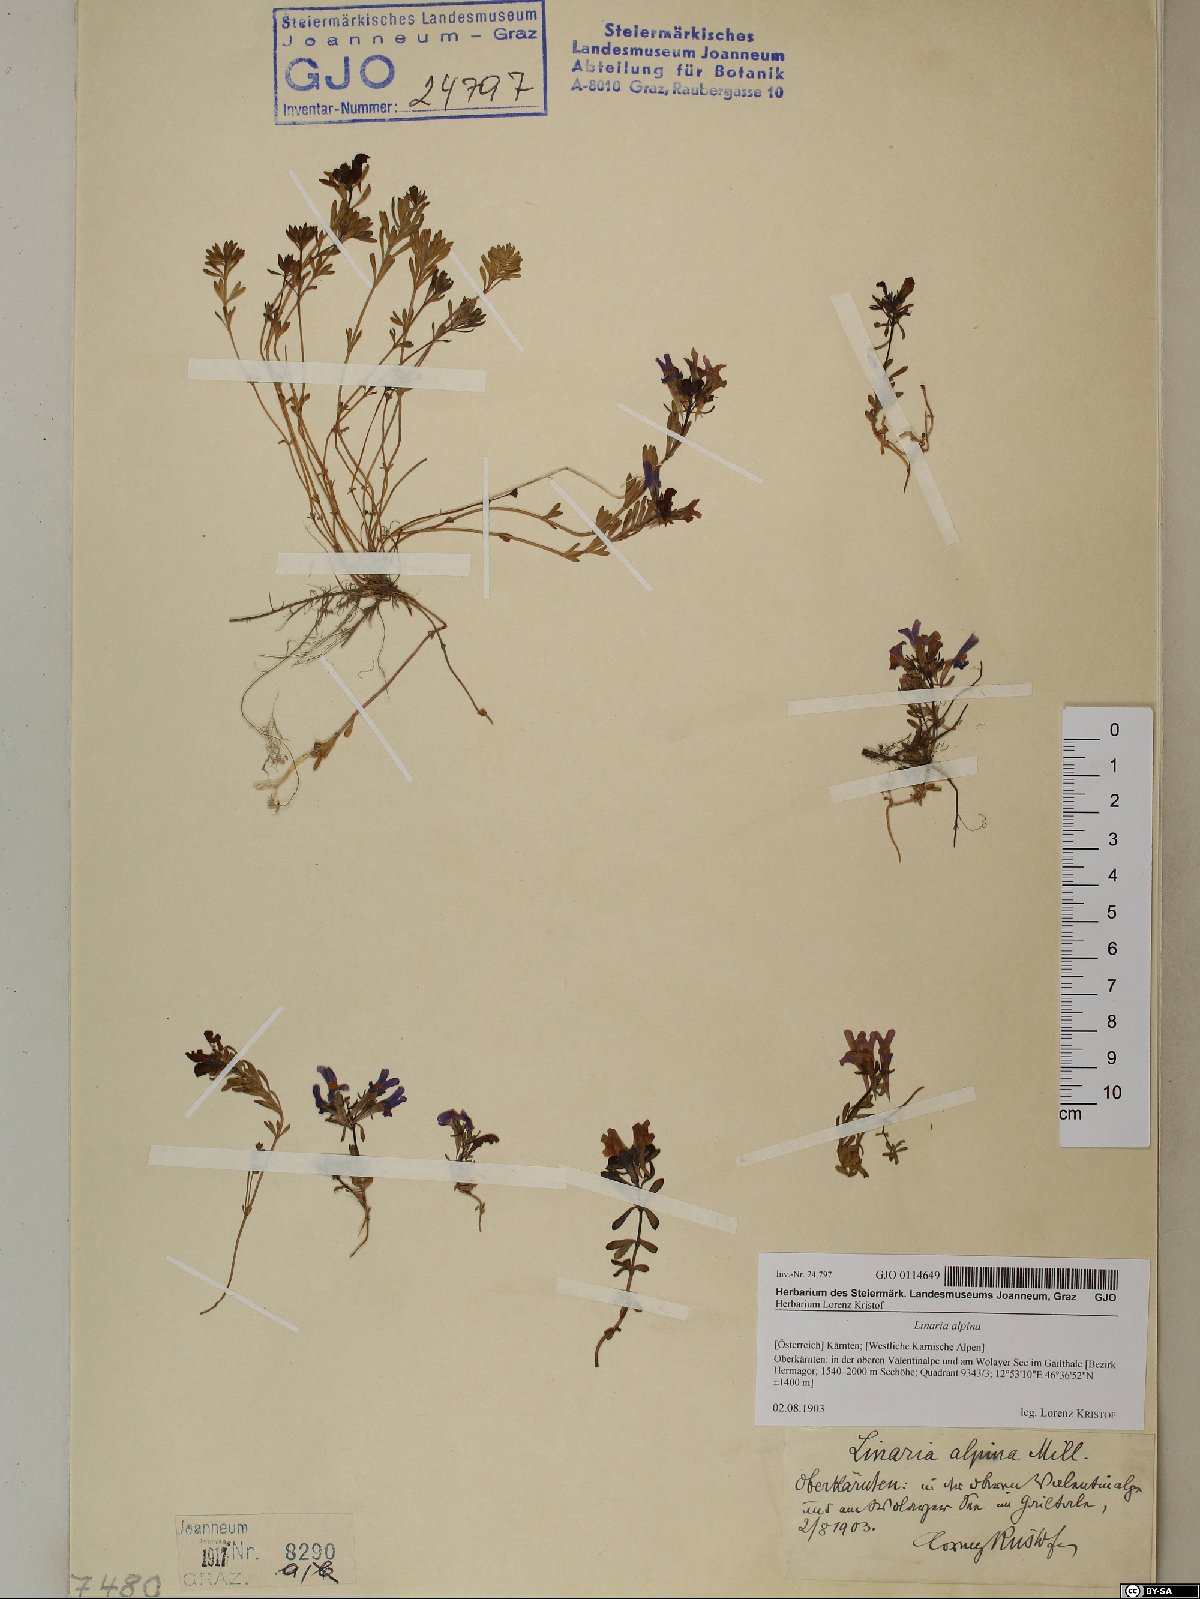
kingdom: Plantae
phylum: Tracheophyta
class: Magnoliopsida
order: Lamiales
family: Plantaginaceae
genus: Linaria
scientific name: Linaria alpina
